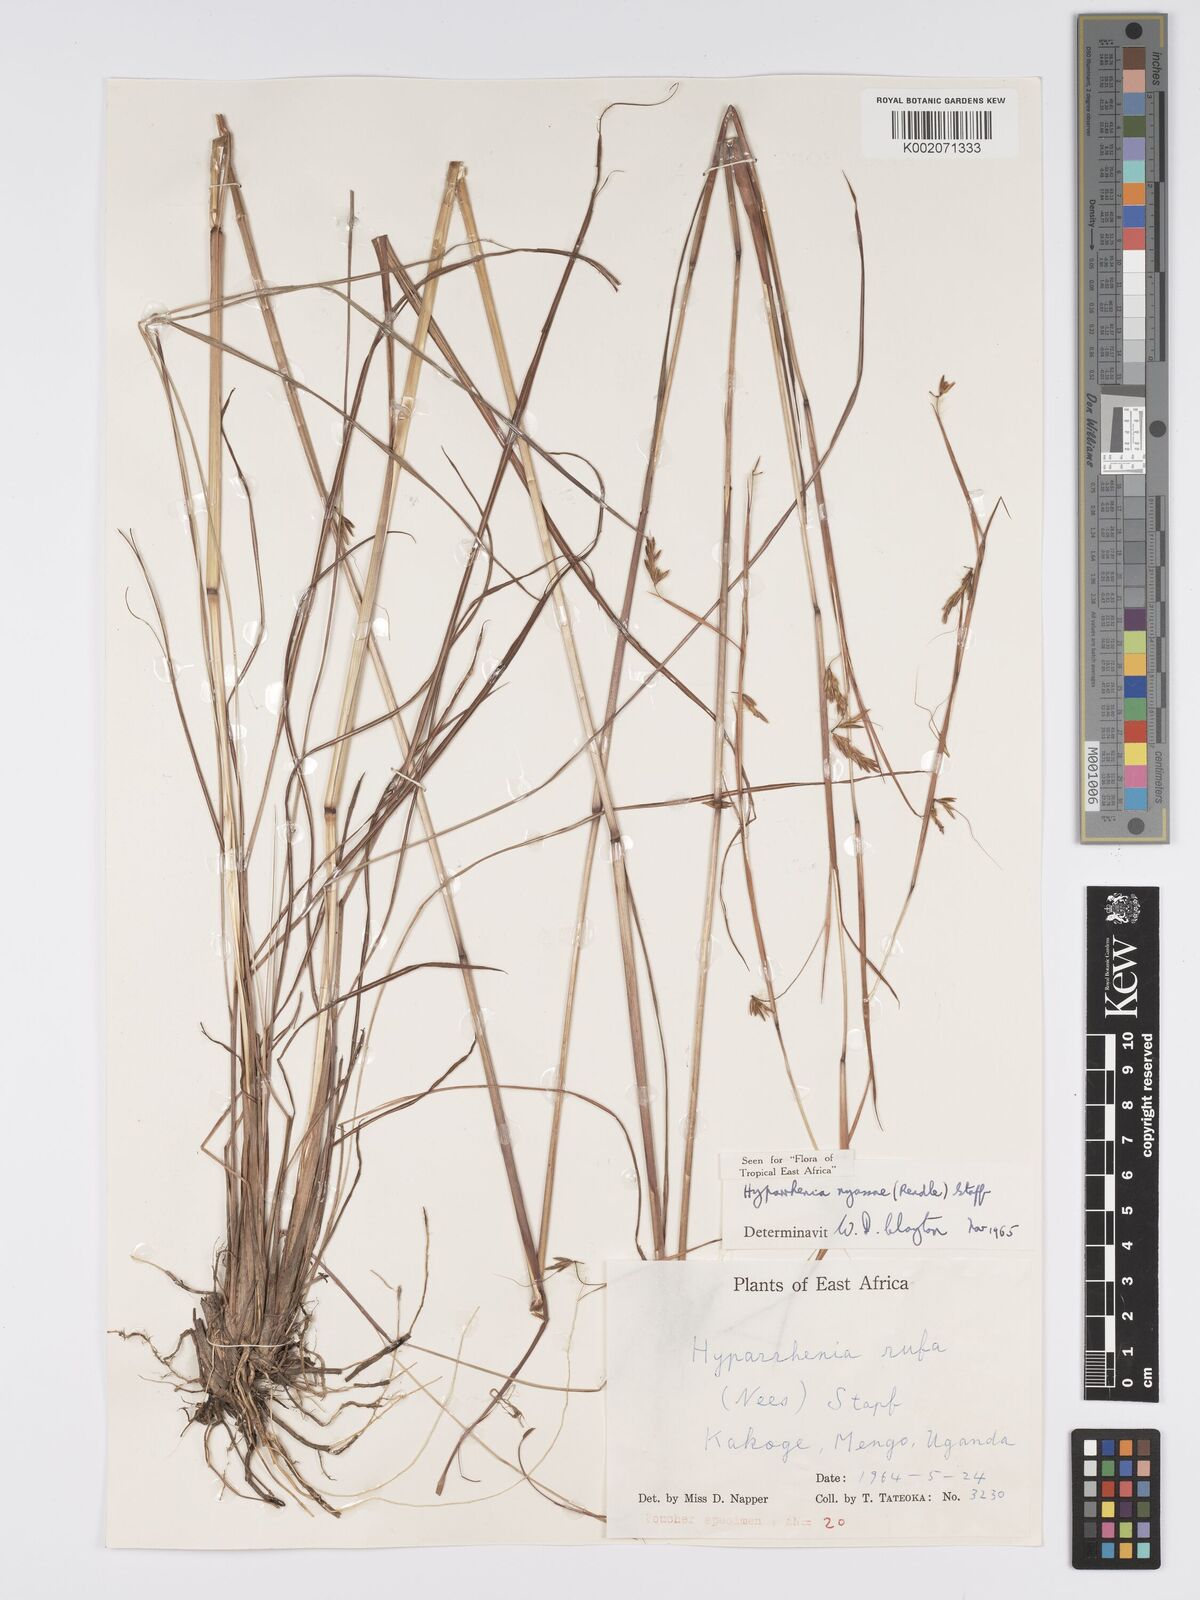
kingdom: Plantae
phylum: Tracheophyta
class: Liliopsida
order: Poales
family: Poaceae
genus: Hyparrhenia
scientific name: Hyparrhenia nyassae
